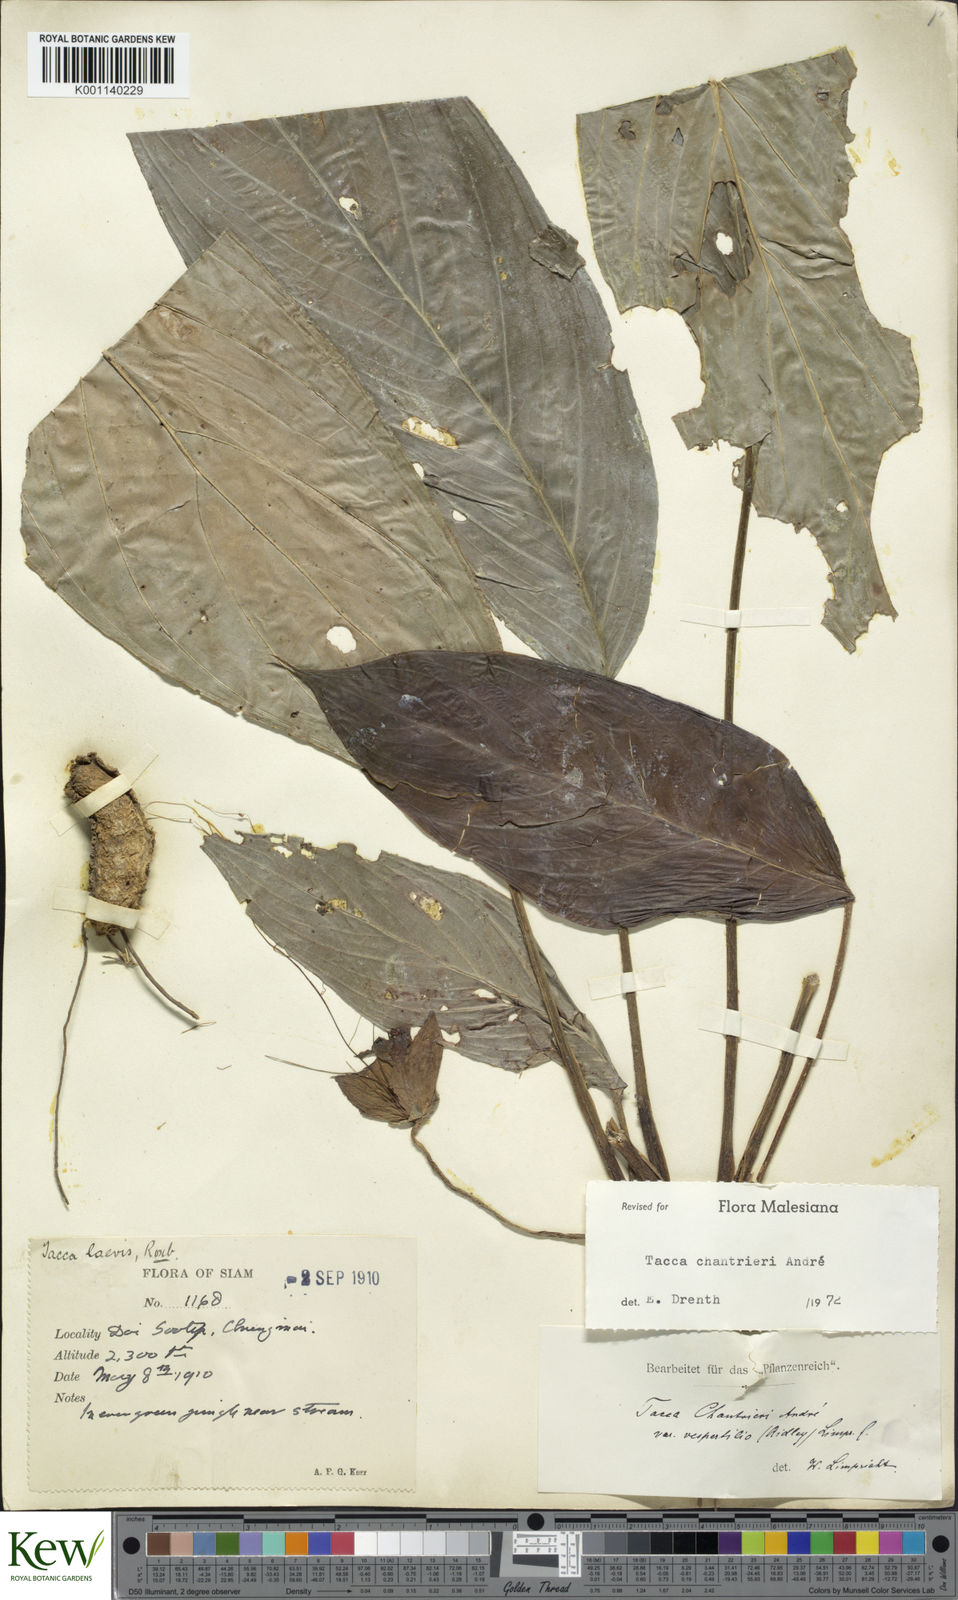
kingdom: Plantae
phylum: Tracheophyta
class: Liliopsida
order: Dioscoreales
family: Dioscoreaceae
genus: Tacca
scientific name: Tacca
